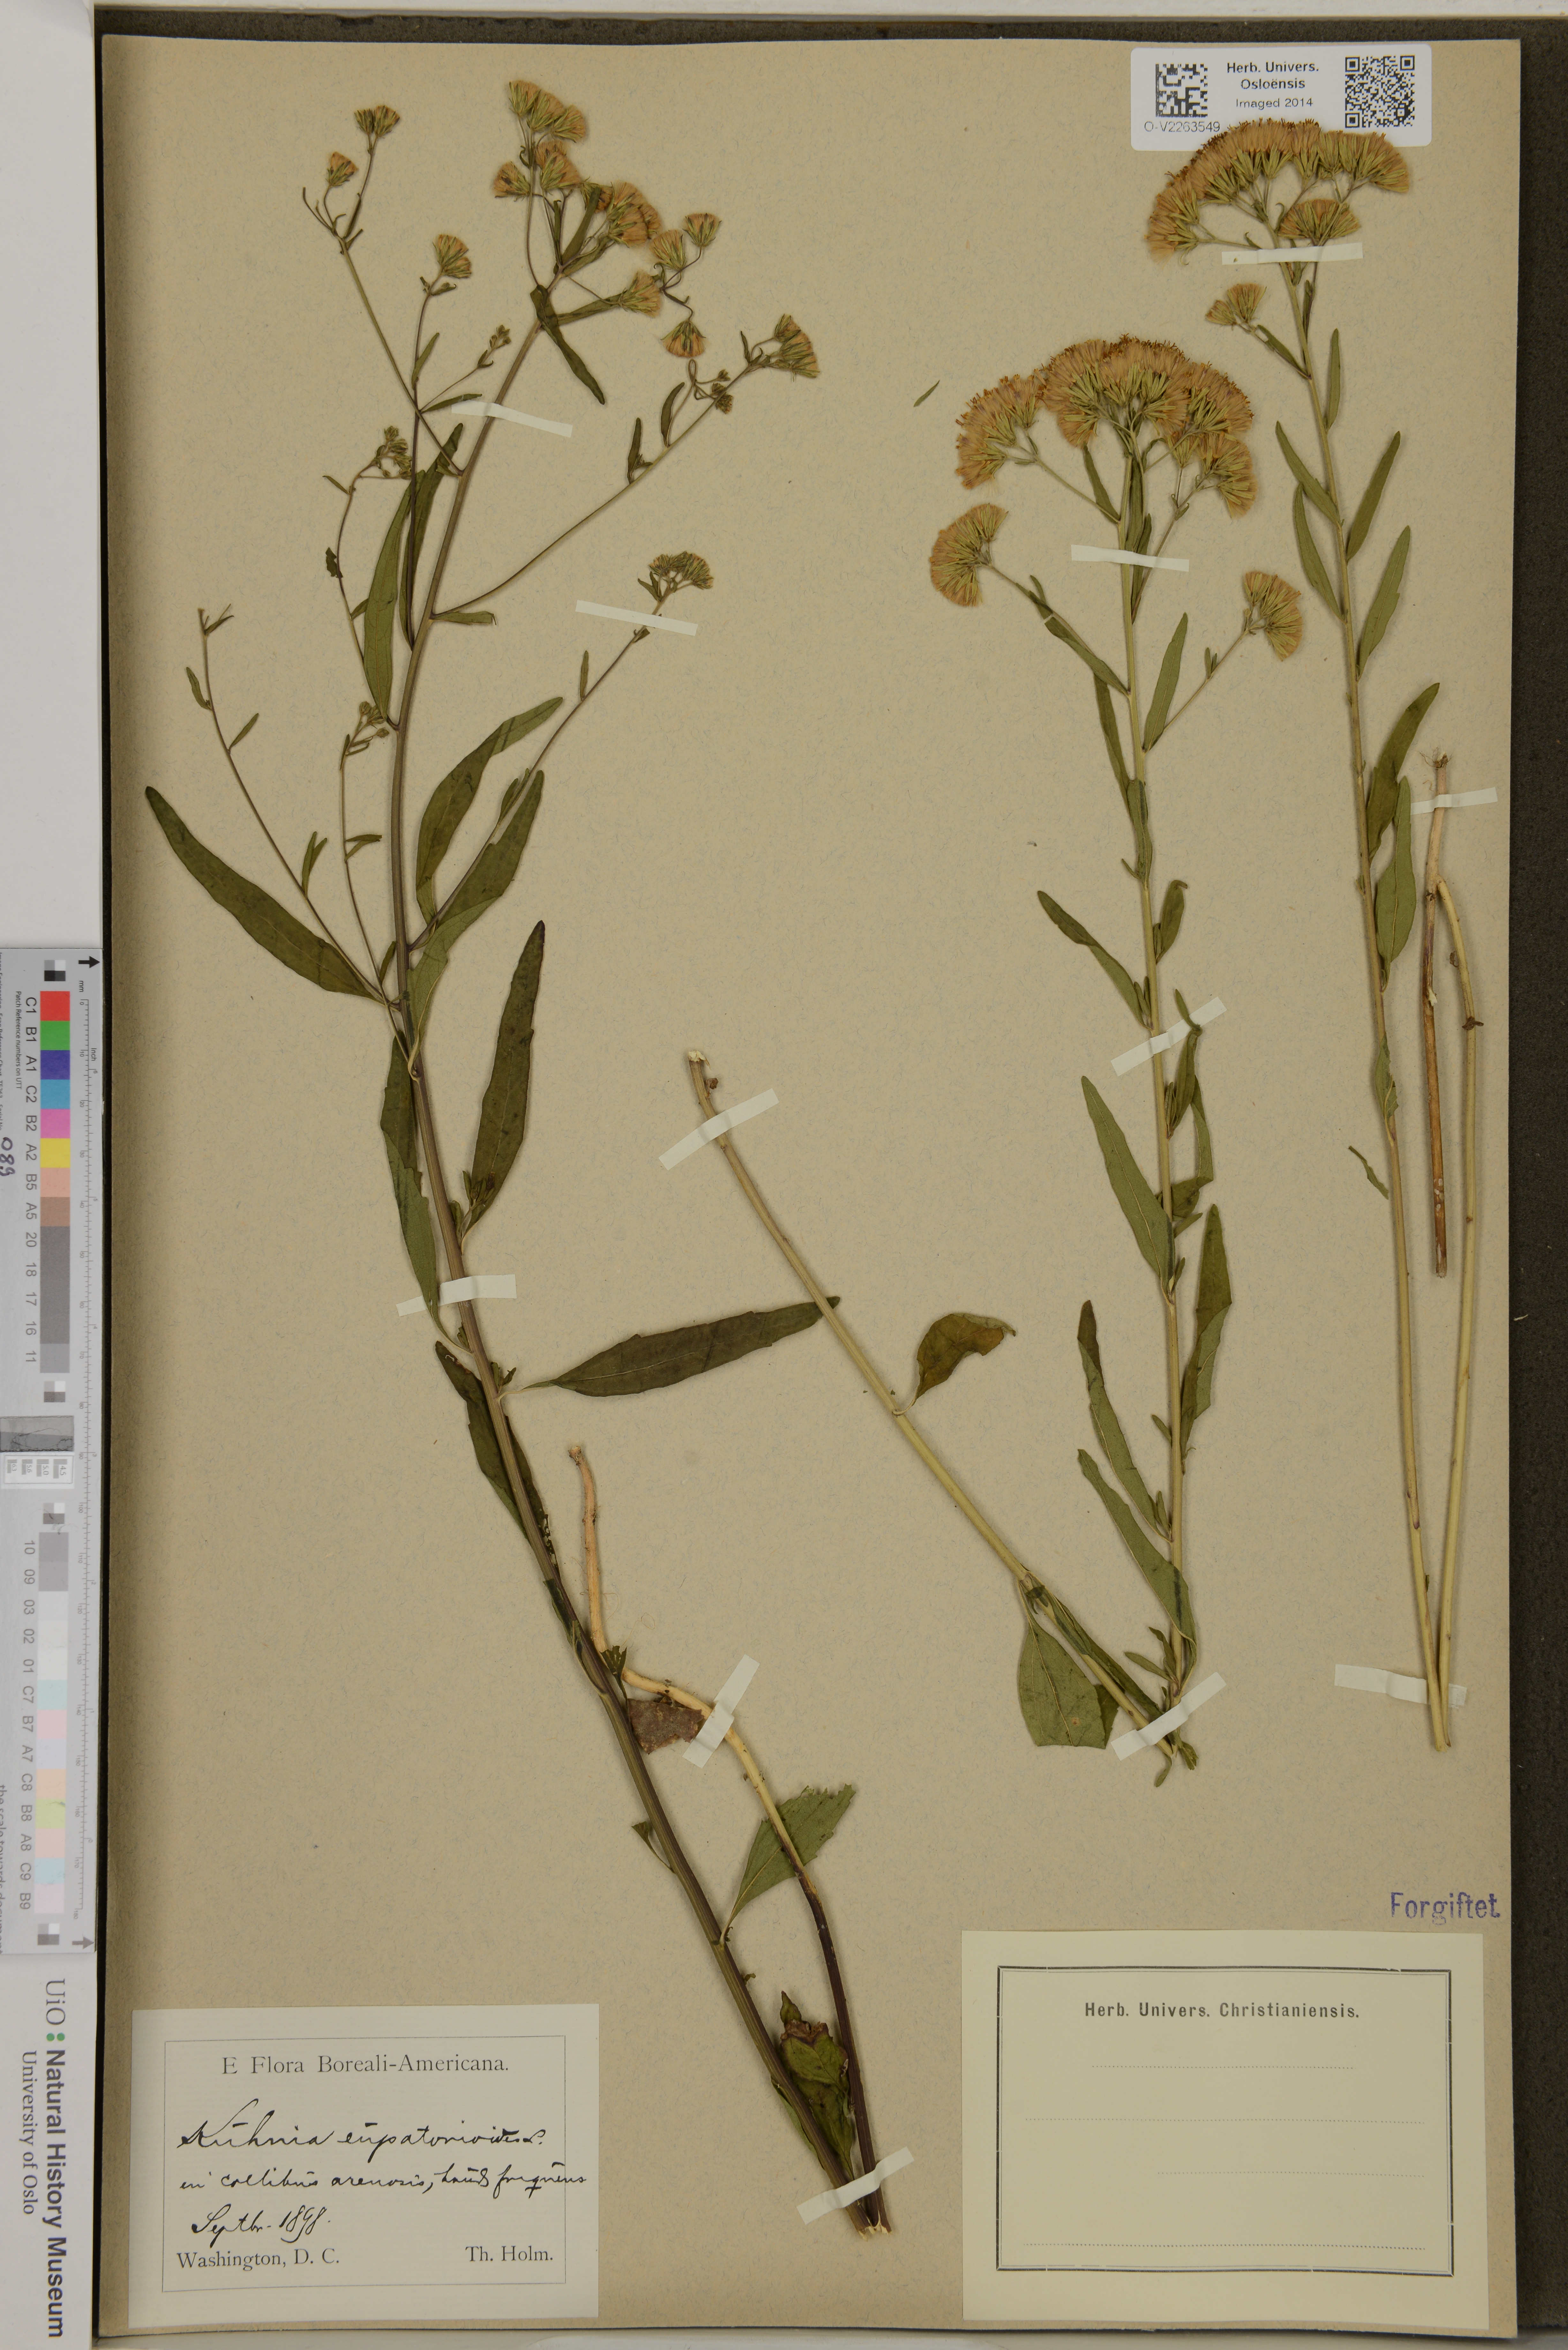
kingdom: Plantae
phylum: Tracheophyta
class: Magnoliopsida
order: Asterales
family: Asteraceae
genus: Brickellia
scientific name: Brickellia eupatorioides
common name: False boneset
